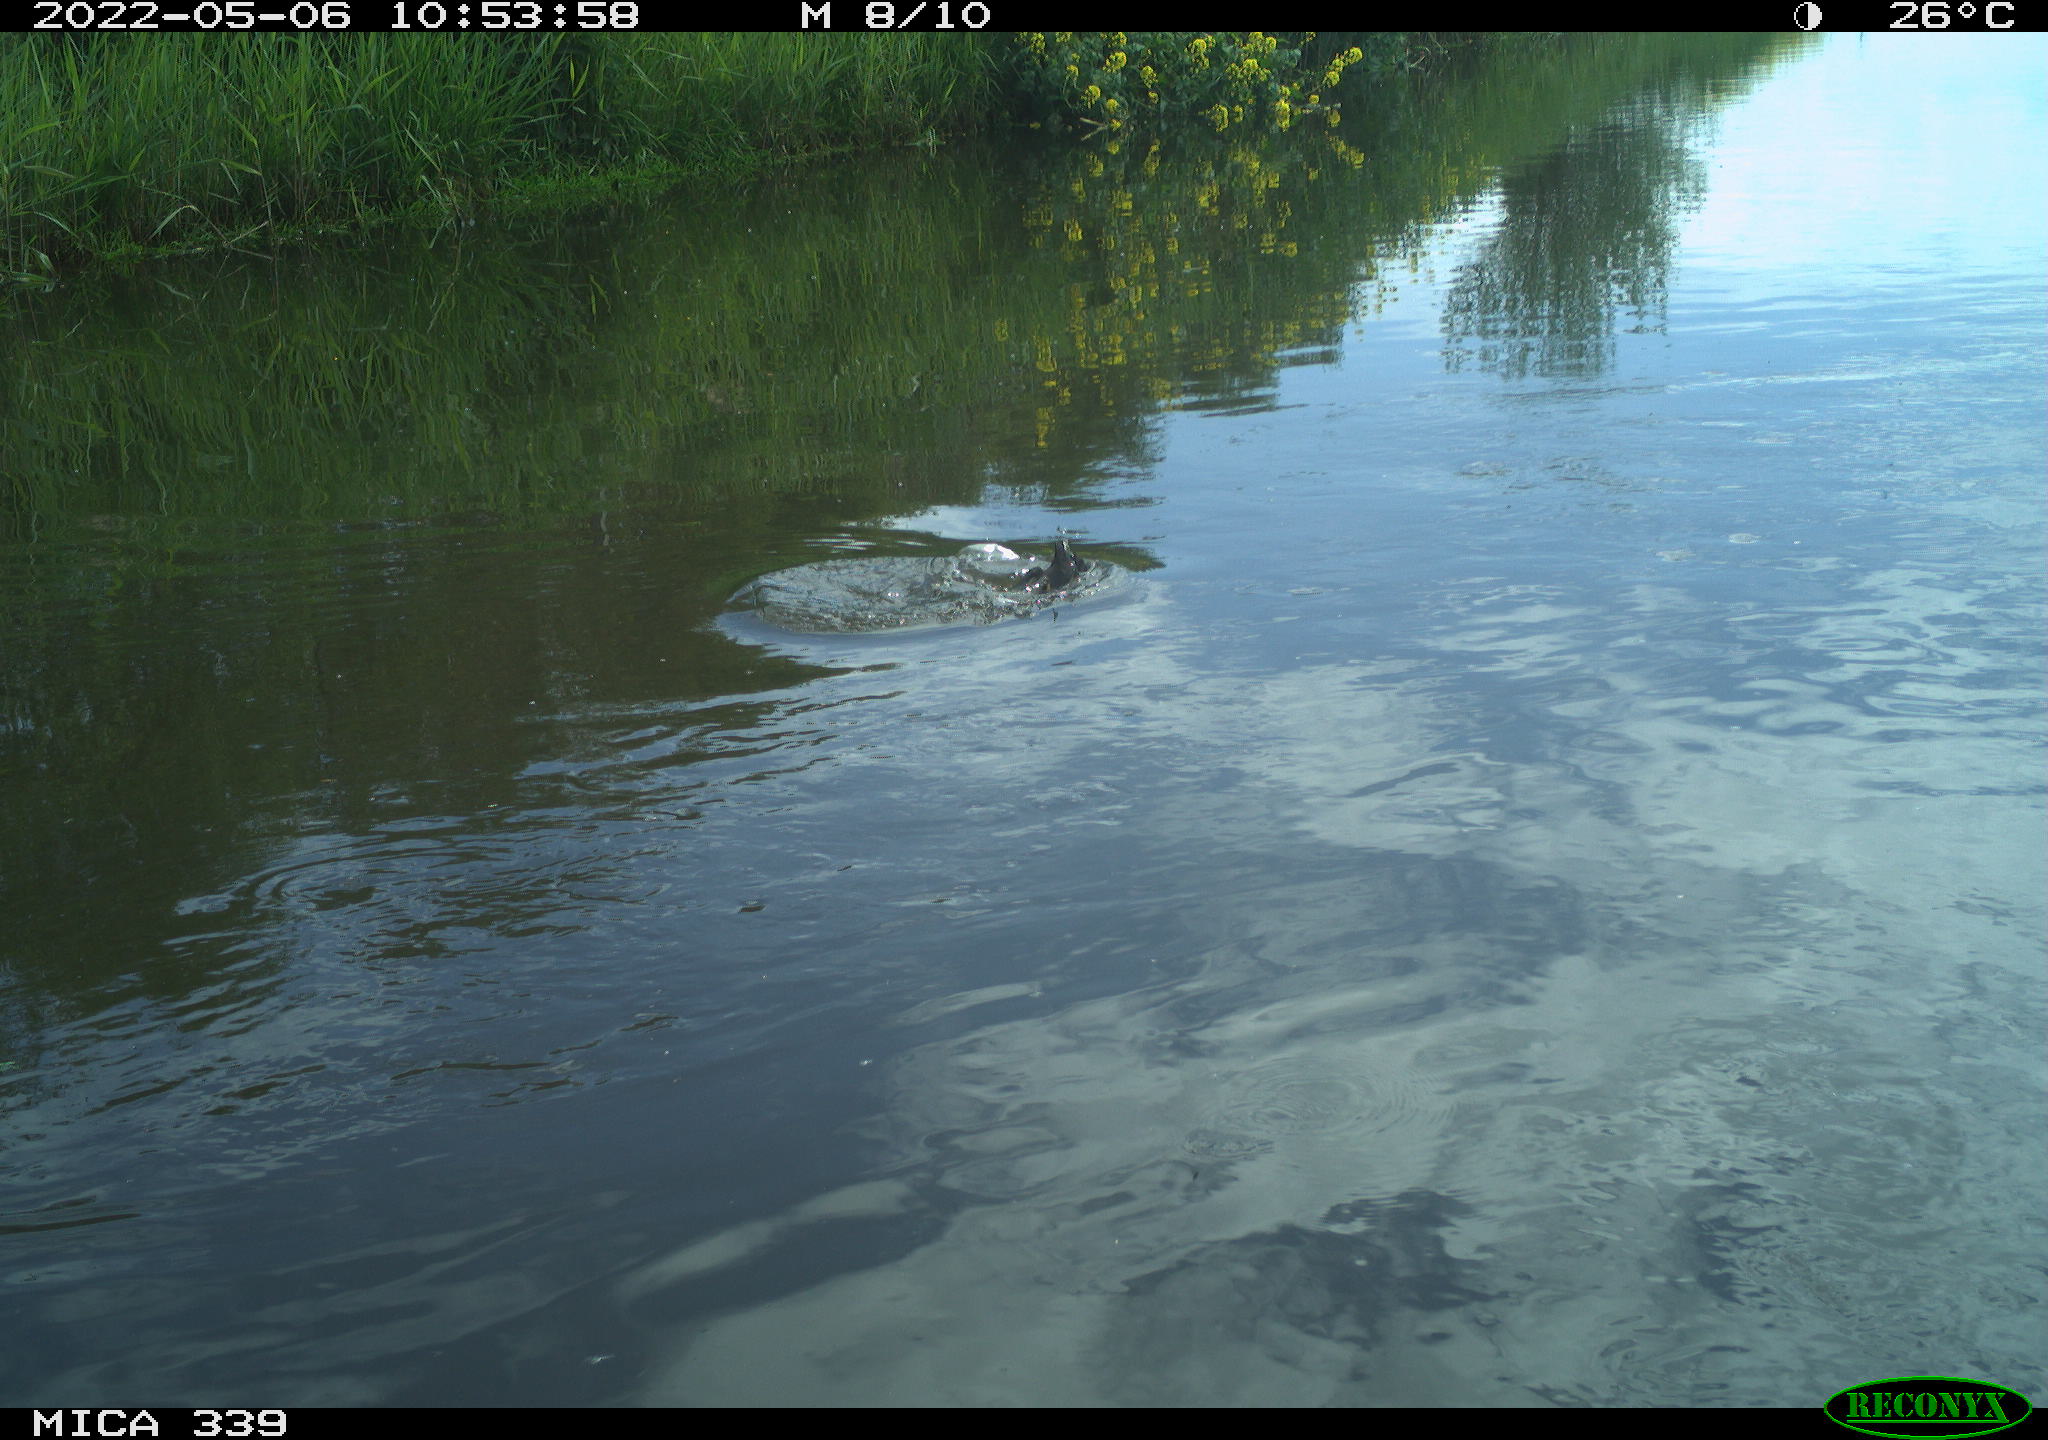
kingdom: Animalia
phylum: Chordata
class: Aves
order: Gruiformes
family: Rallidae
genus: Fulica
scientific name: Fulica atra
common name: Eurasian coot
